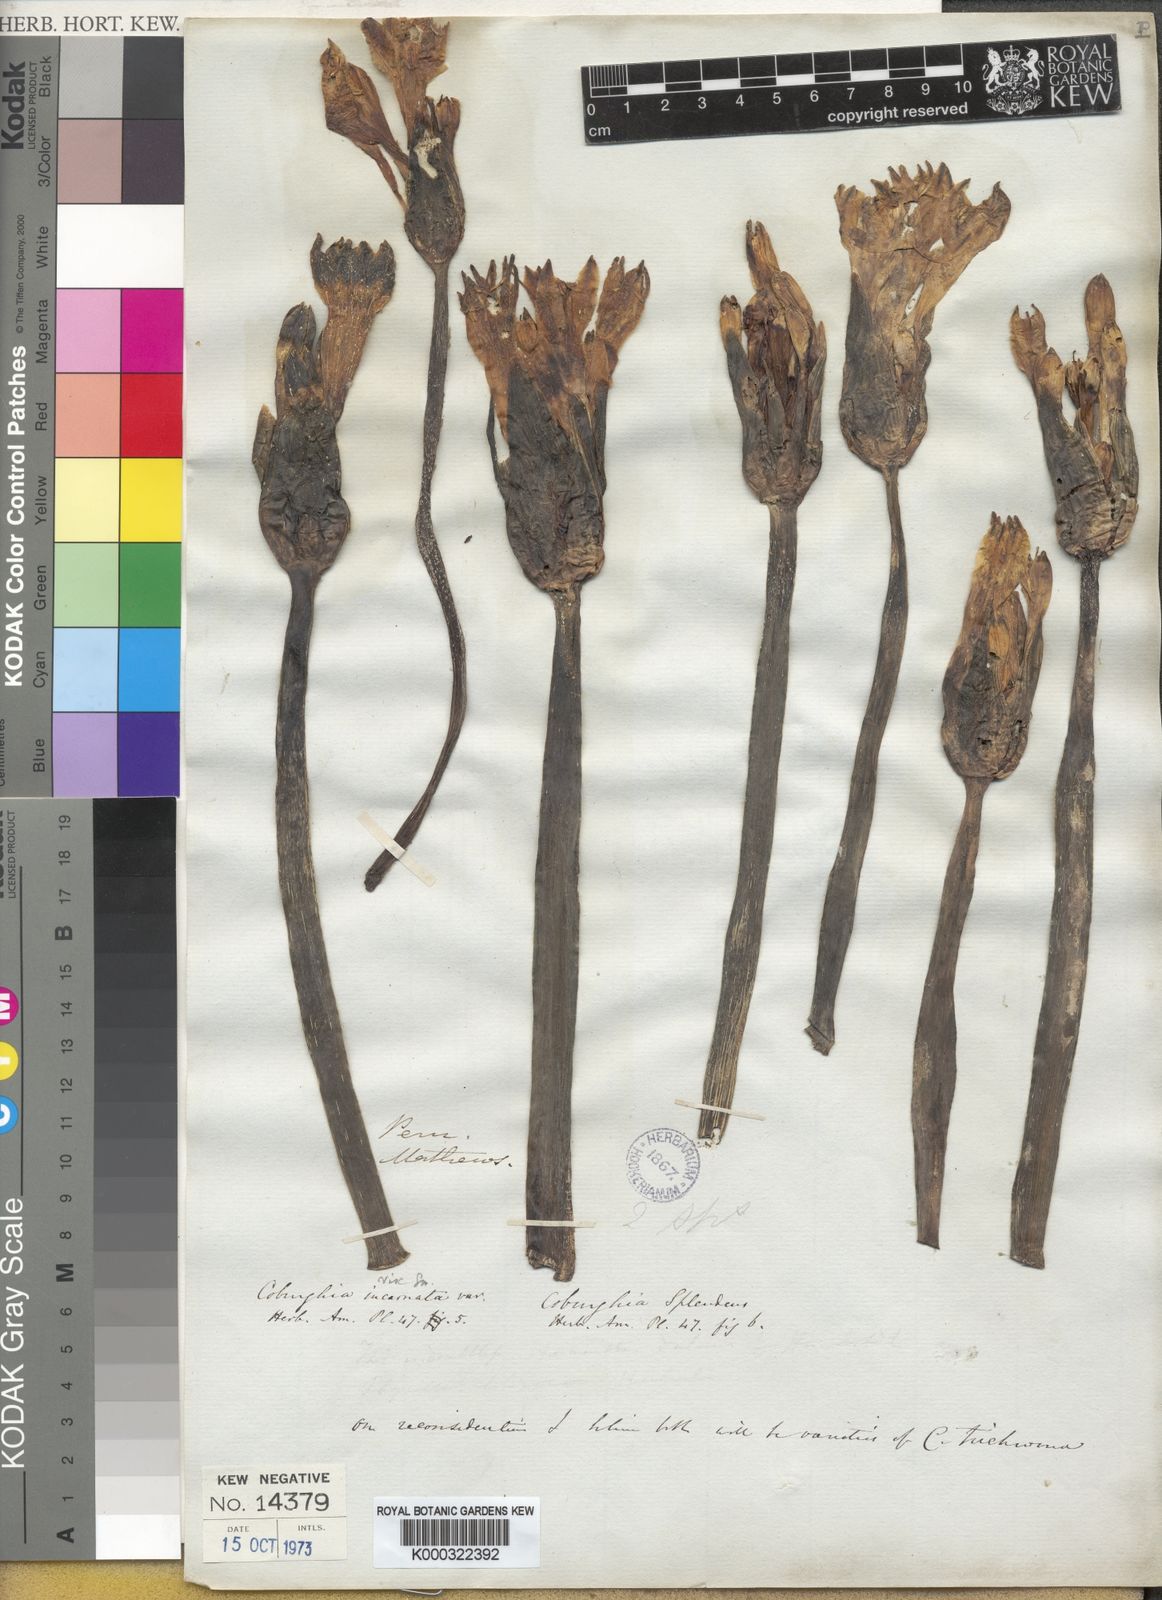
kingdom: Plantae
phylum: Tracheophyta
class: Liliopsida
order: Asparagales
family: Amaryllidaceae
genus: Clinanthus
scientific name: Clinanthus incarnatus
